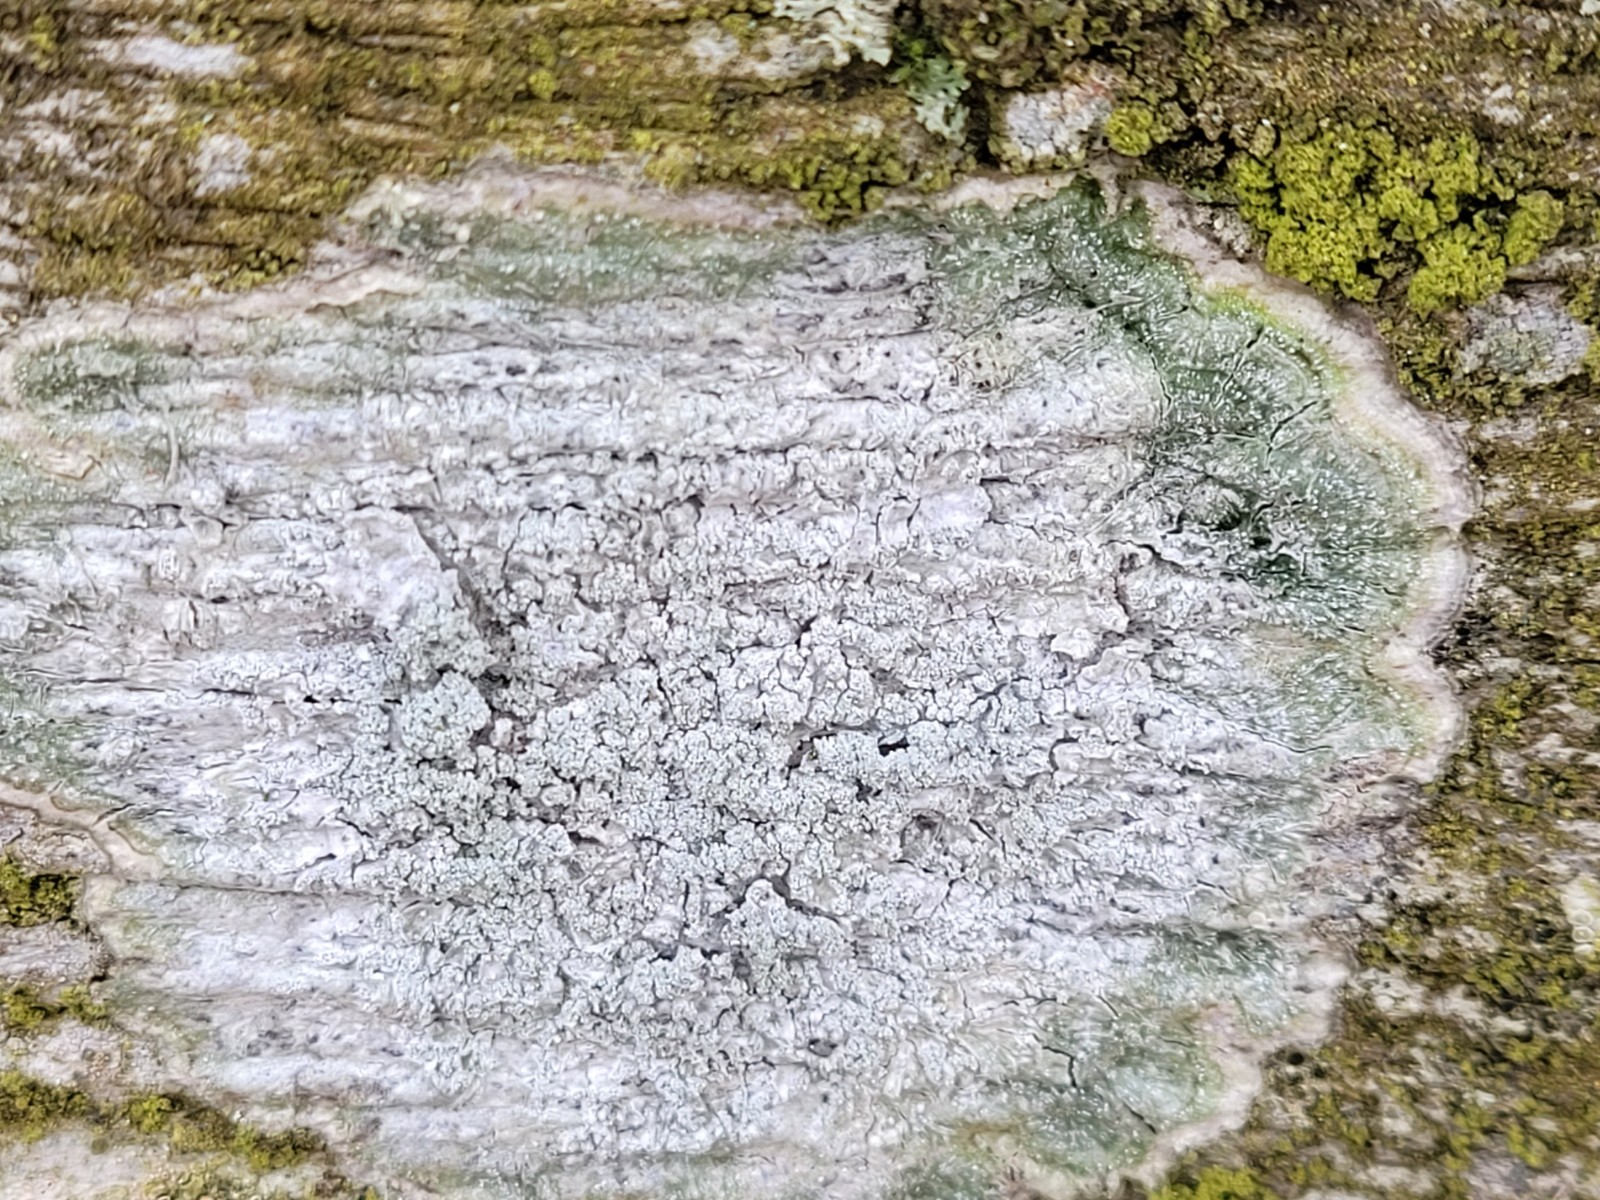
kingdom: Fungi
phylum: Ascomycota
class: Lecanoromycetes
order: Pertusariales
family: Pertusariaceae
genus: Lepra
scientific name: Lepra albescens
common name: hvidmelet prikvortelav
